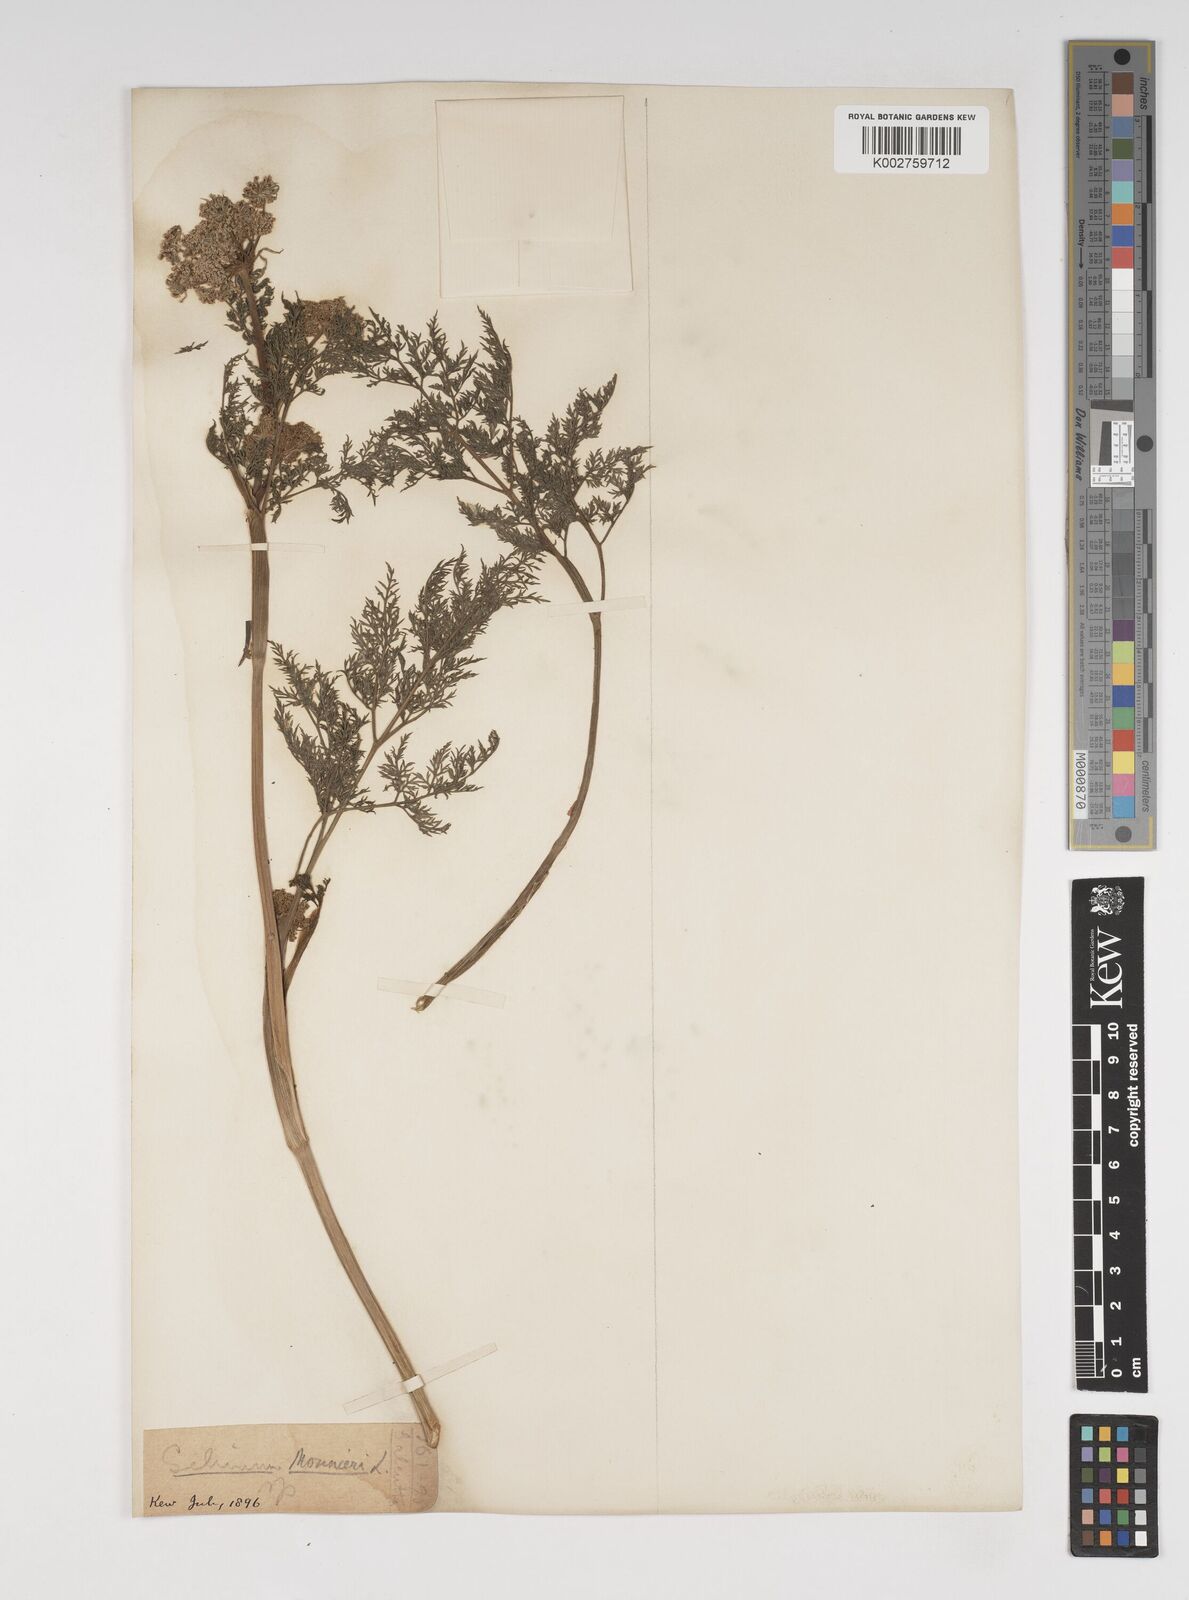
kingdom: Plantae
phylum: Tracheophyta
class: Magnoliopsida
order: Apiales
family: Apiaceae
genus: Cnidium
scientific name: Cnidium monnieri
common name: Monnier's snowparsley
